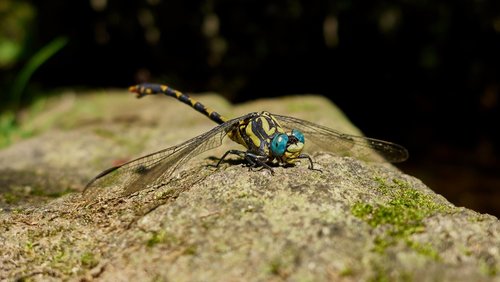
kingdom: Animalia
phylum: Arthropoda
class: Insecta
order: Odonata
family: Gomphidae
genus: Onychogomphus
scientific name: Onychogomphus uncatus
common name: Large pincertail
